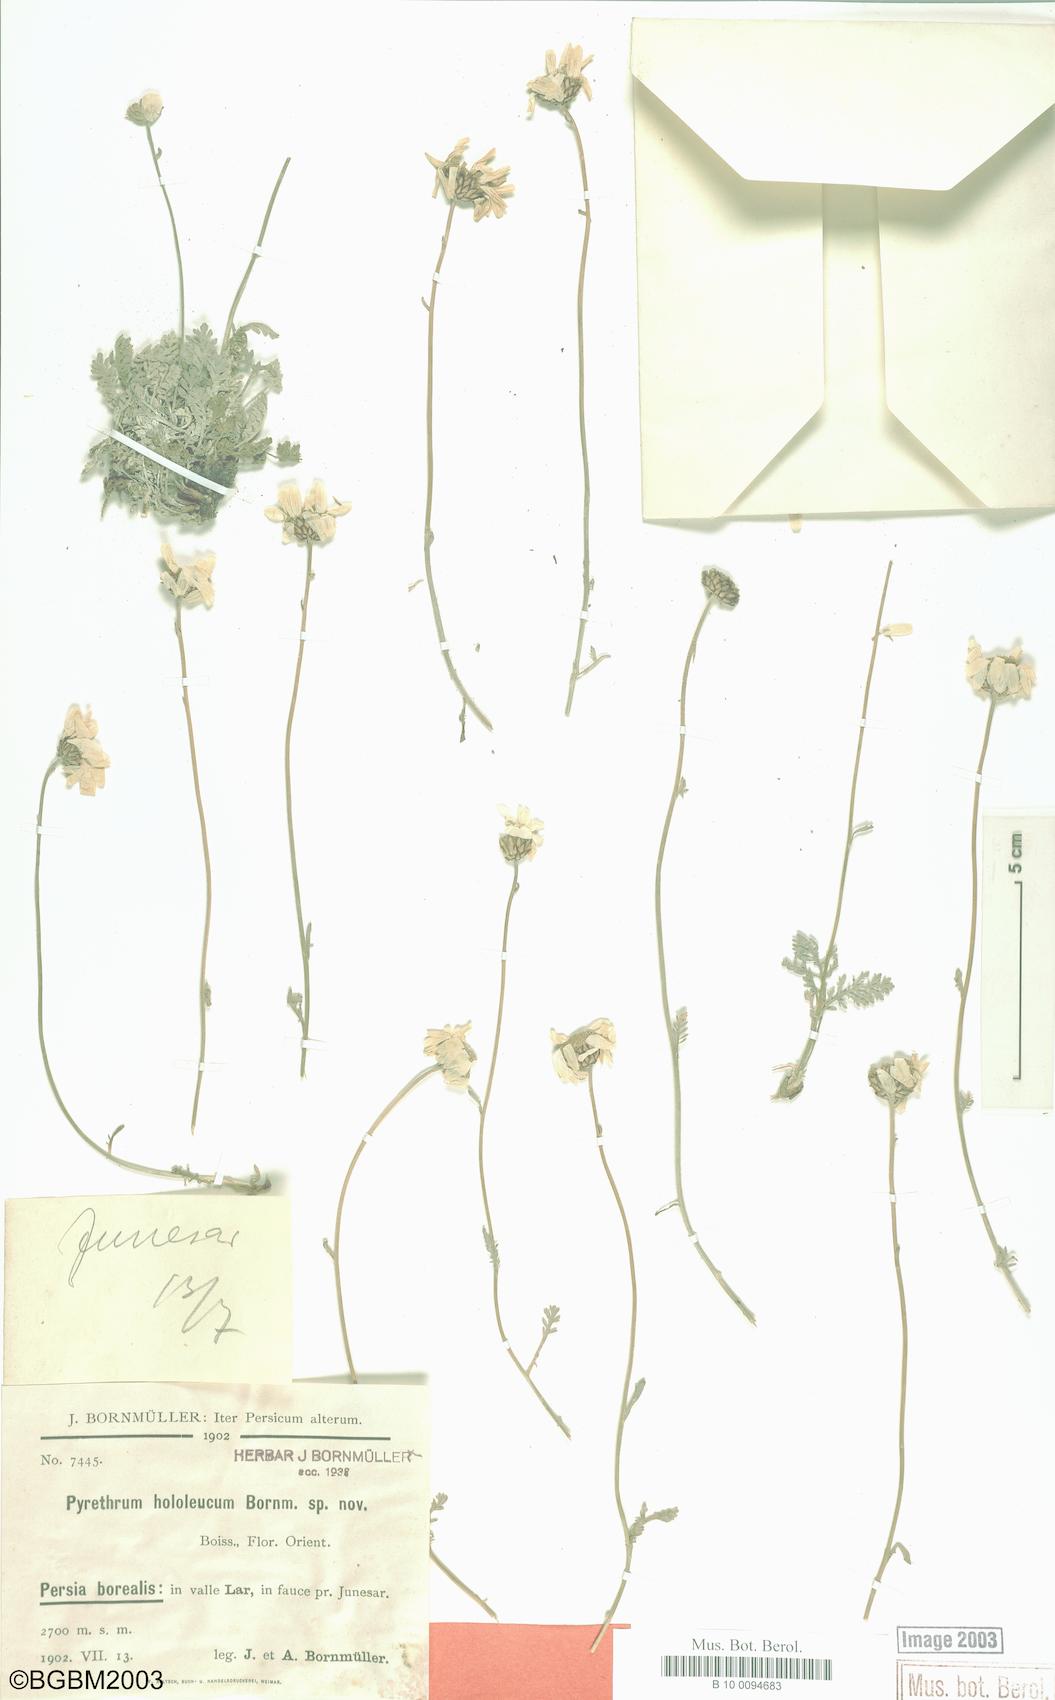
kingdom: Plantae
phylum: Tracheophyta
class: Magnoliopsida
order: Asterales
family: Asteraceae
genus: Tanacetum
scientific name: Tanacetum hololeucum
